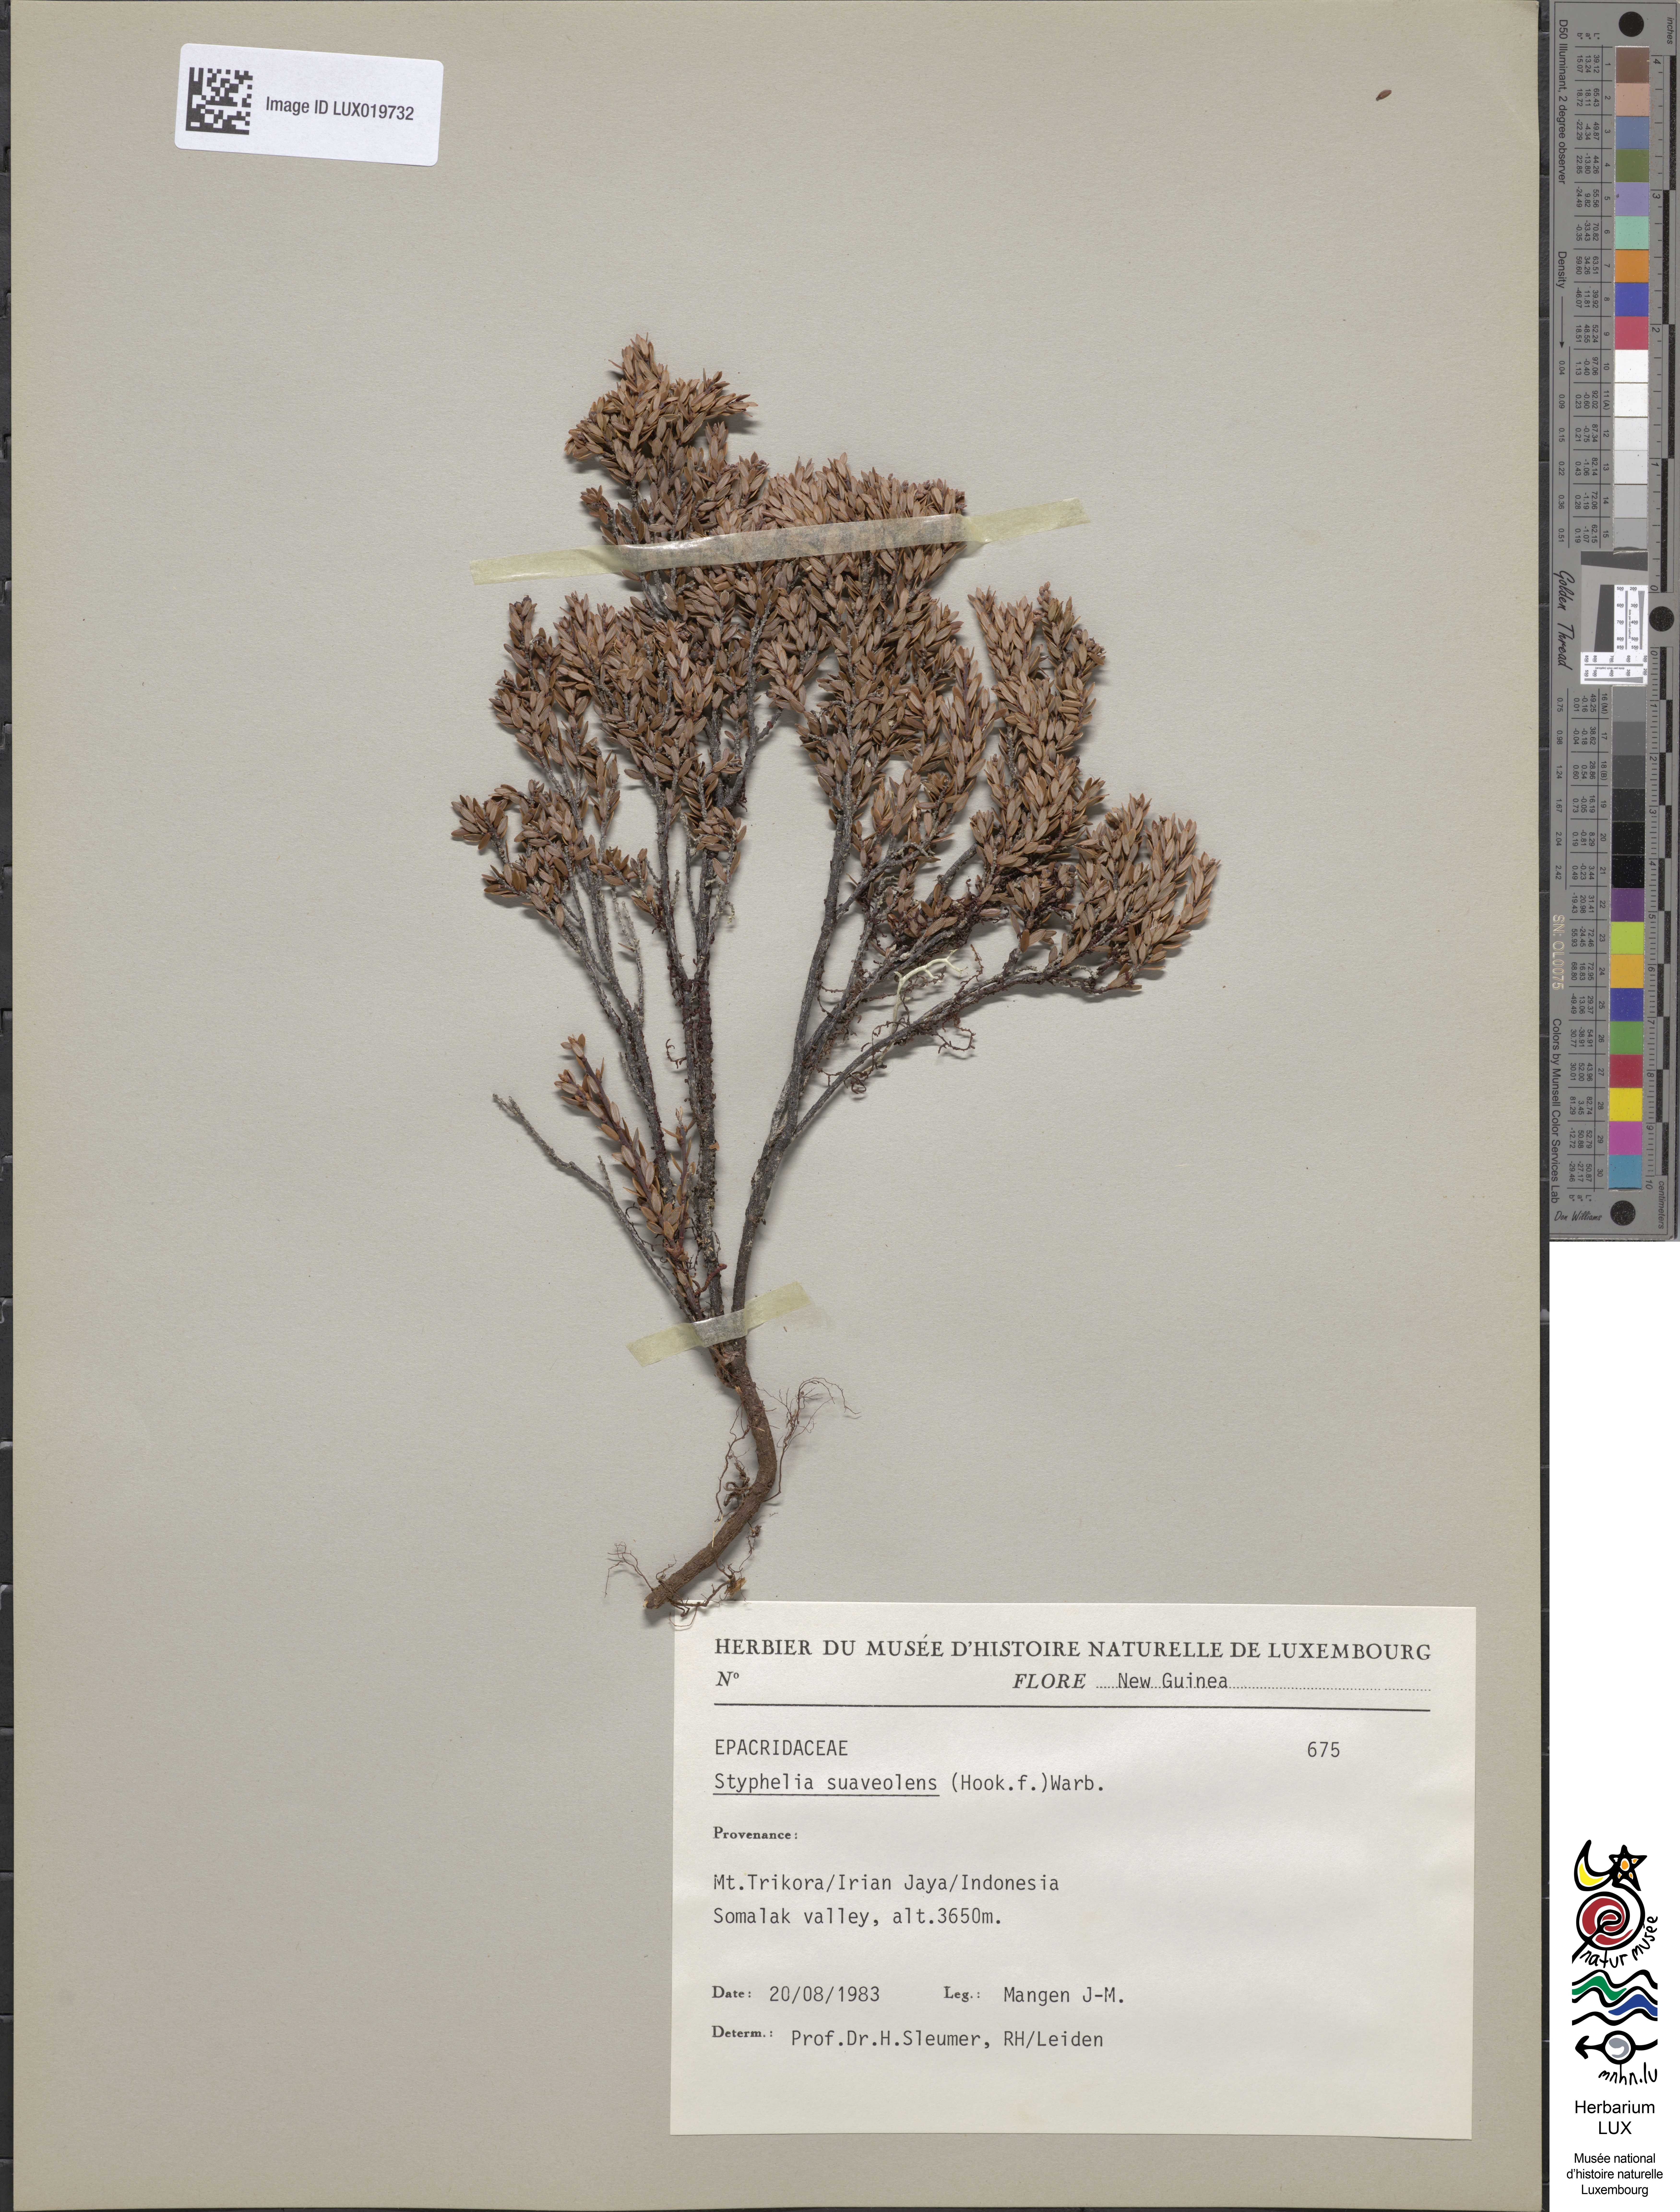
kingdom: Plantae
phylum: Tracheophyta
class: Magnoliopsida
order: Ericales
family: Ericaceae
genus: Acrothamnus
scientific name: Acrothamnus suaveolens
